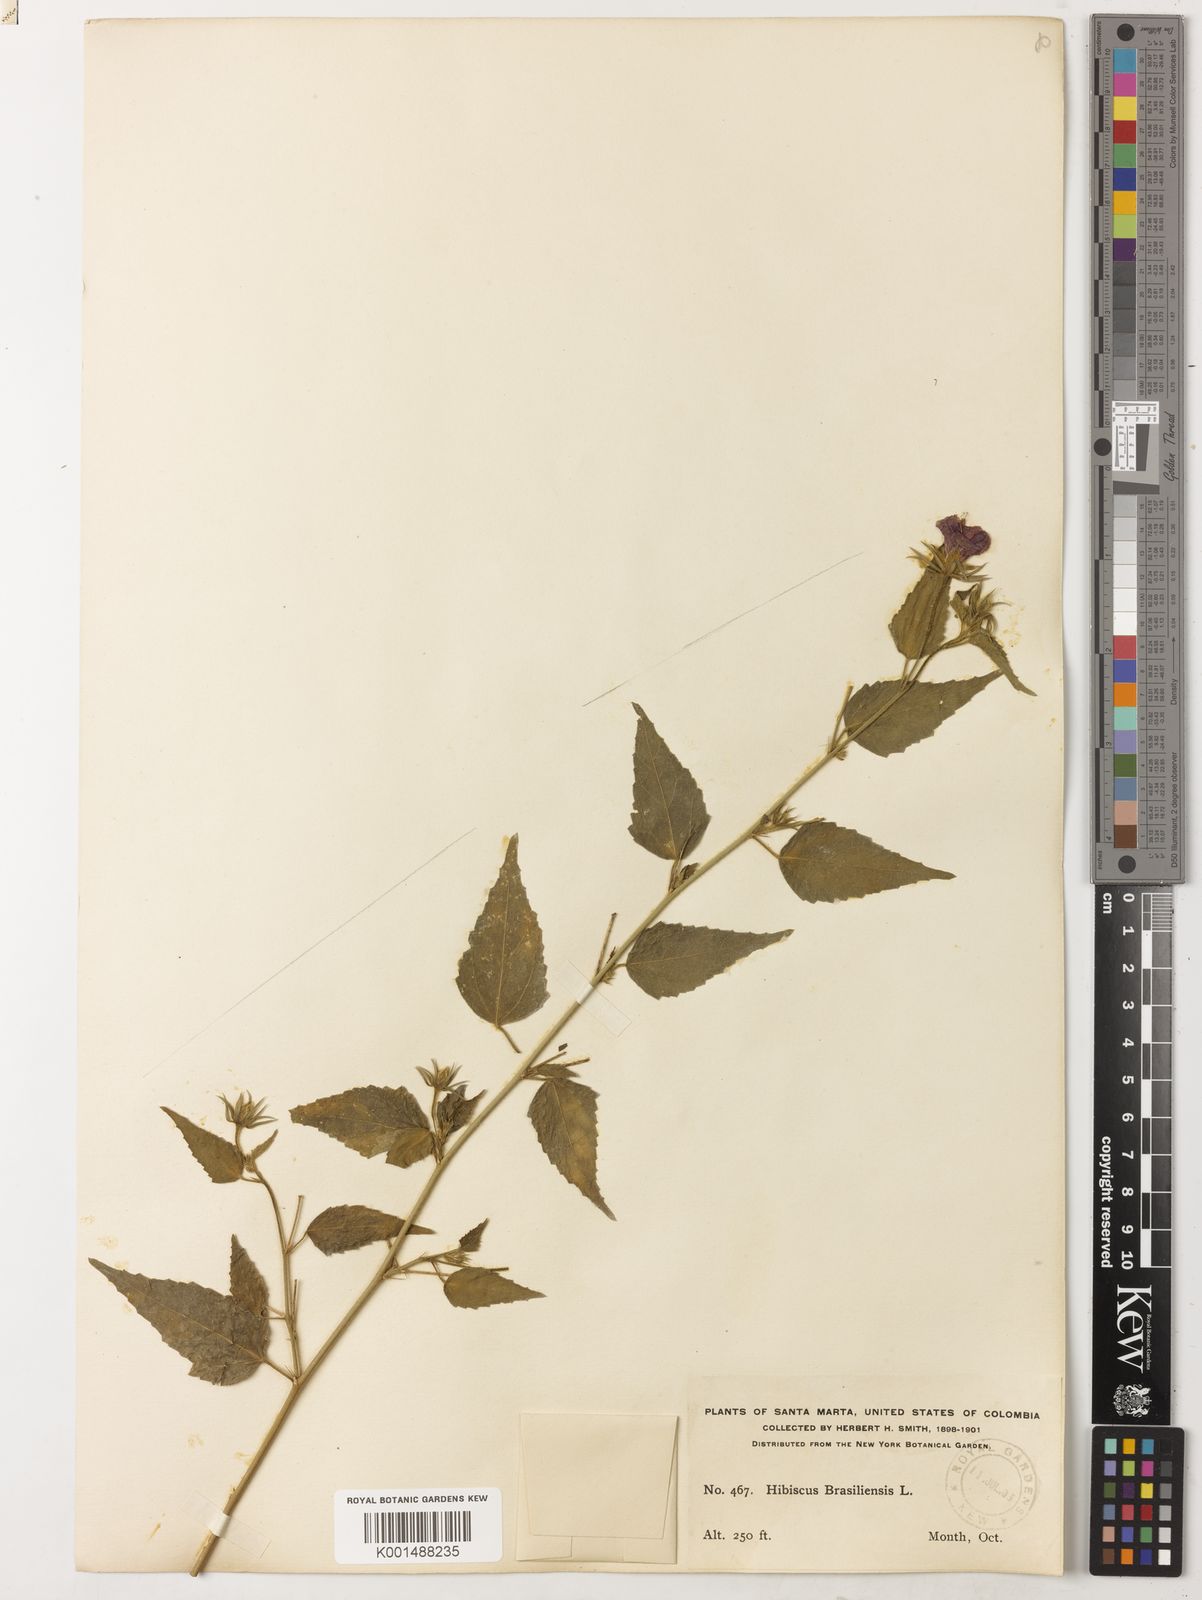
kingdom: Plantae
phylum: Tracheophyta
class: Magnoliopsida
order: Malvales
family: Malvaceae
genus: Hibiscus
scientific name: Hibiscus phoeniceus
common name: Brazilian rosemallow
